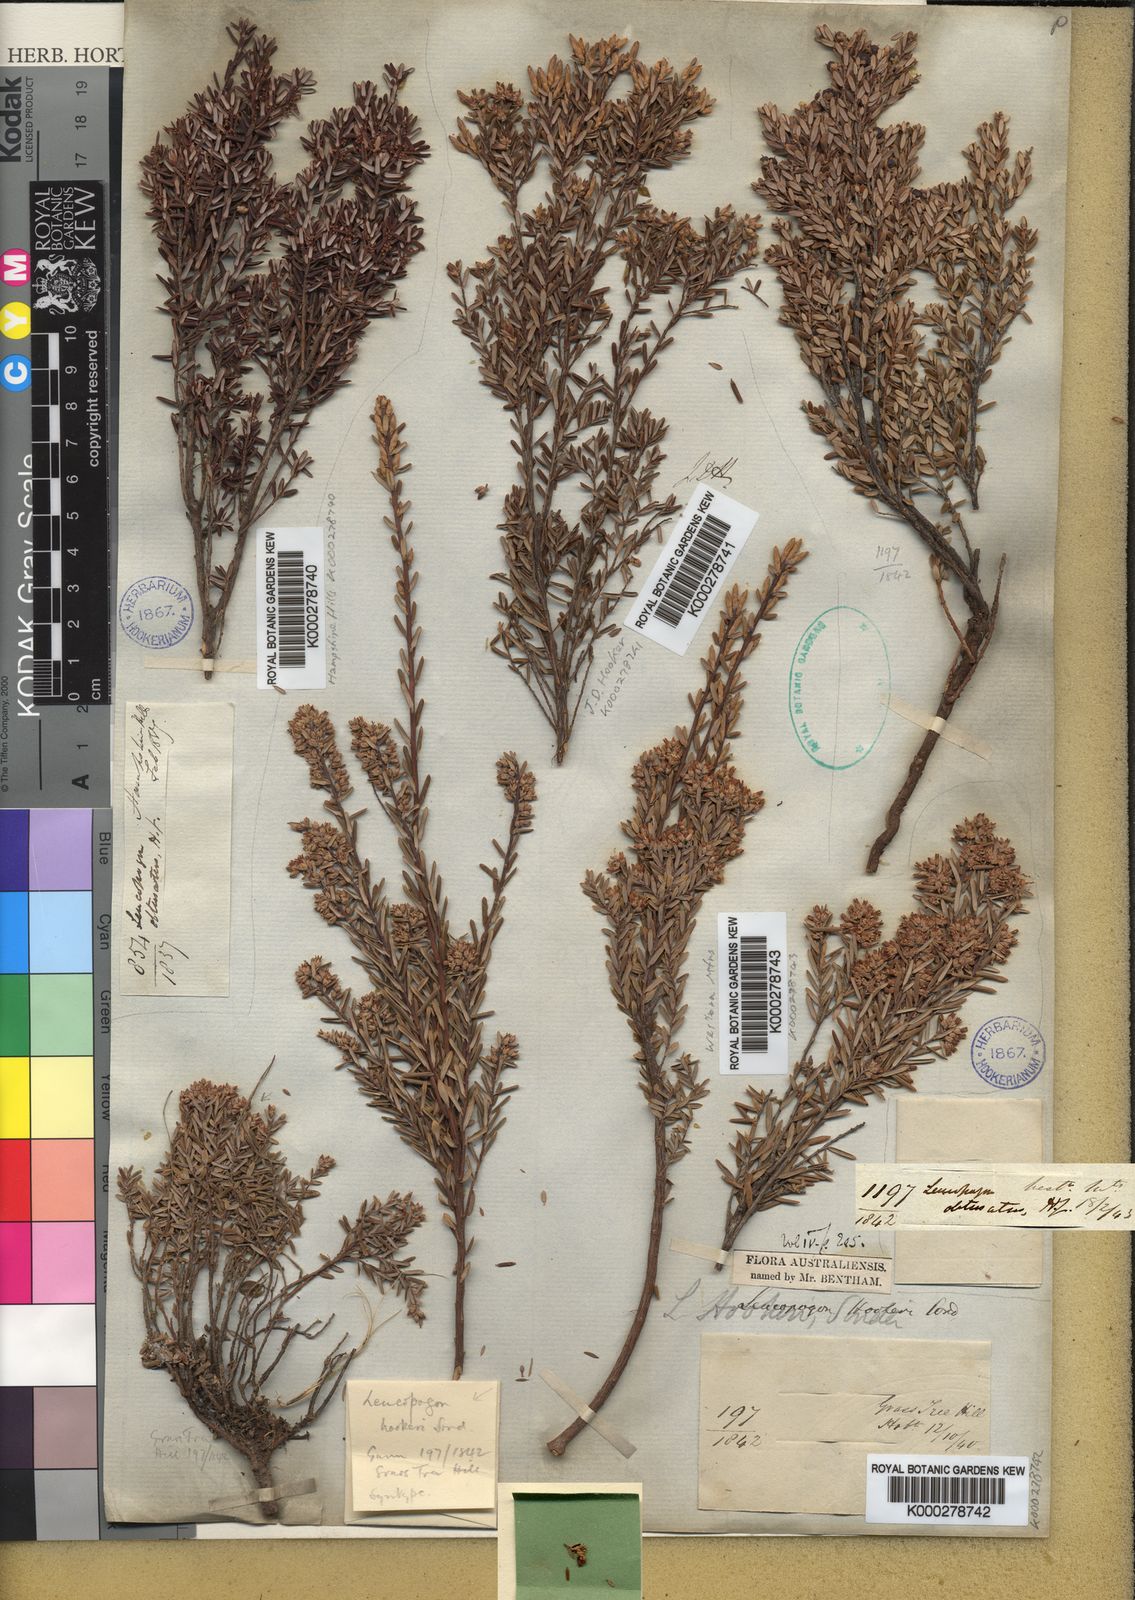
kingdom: Plantae
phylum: Tracheophyta
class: Magnoliopsida
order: Ericales
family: Ericaceae
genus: Acrothamnus
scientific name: Acrothamnus hookeri
